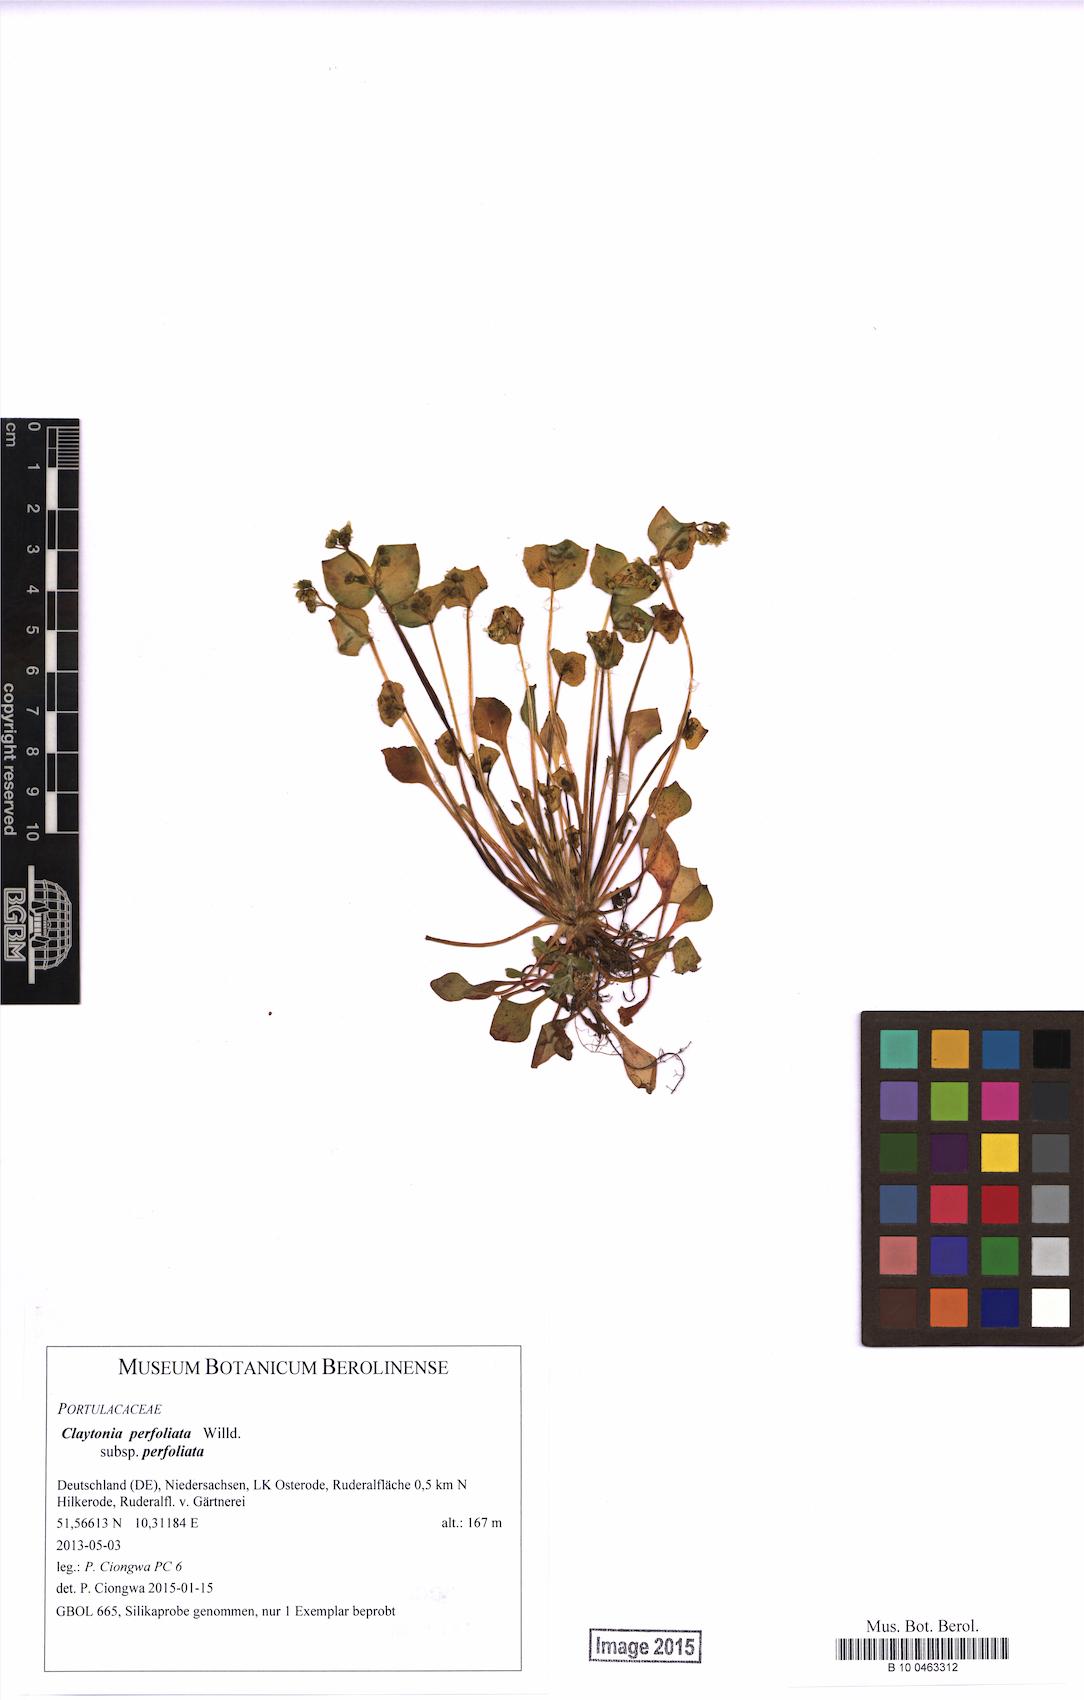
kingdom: Plantae
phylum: Tracheophyta
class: Magnoliopsida
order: Caryophyllales
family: Montiaceae
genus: Claytonia
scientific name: Claytonia perfoliata
